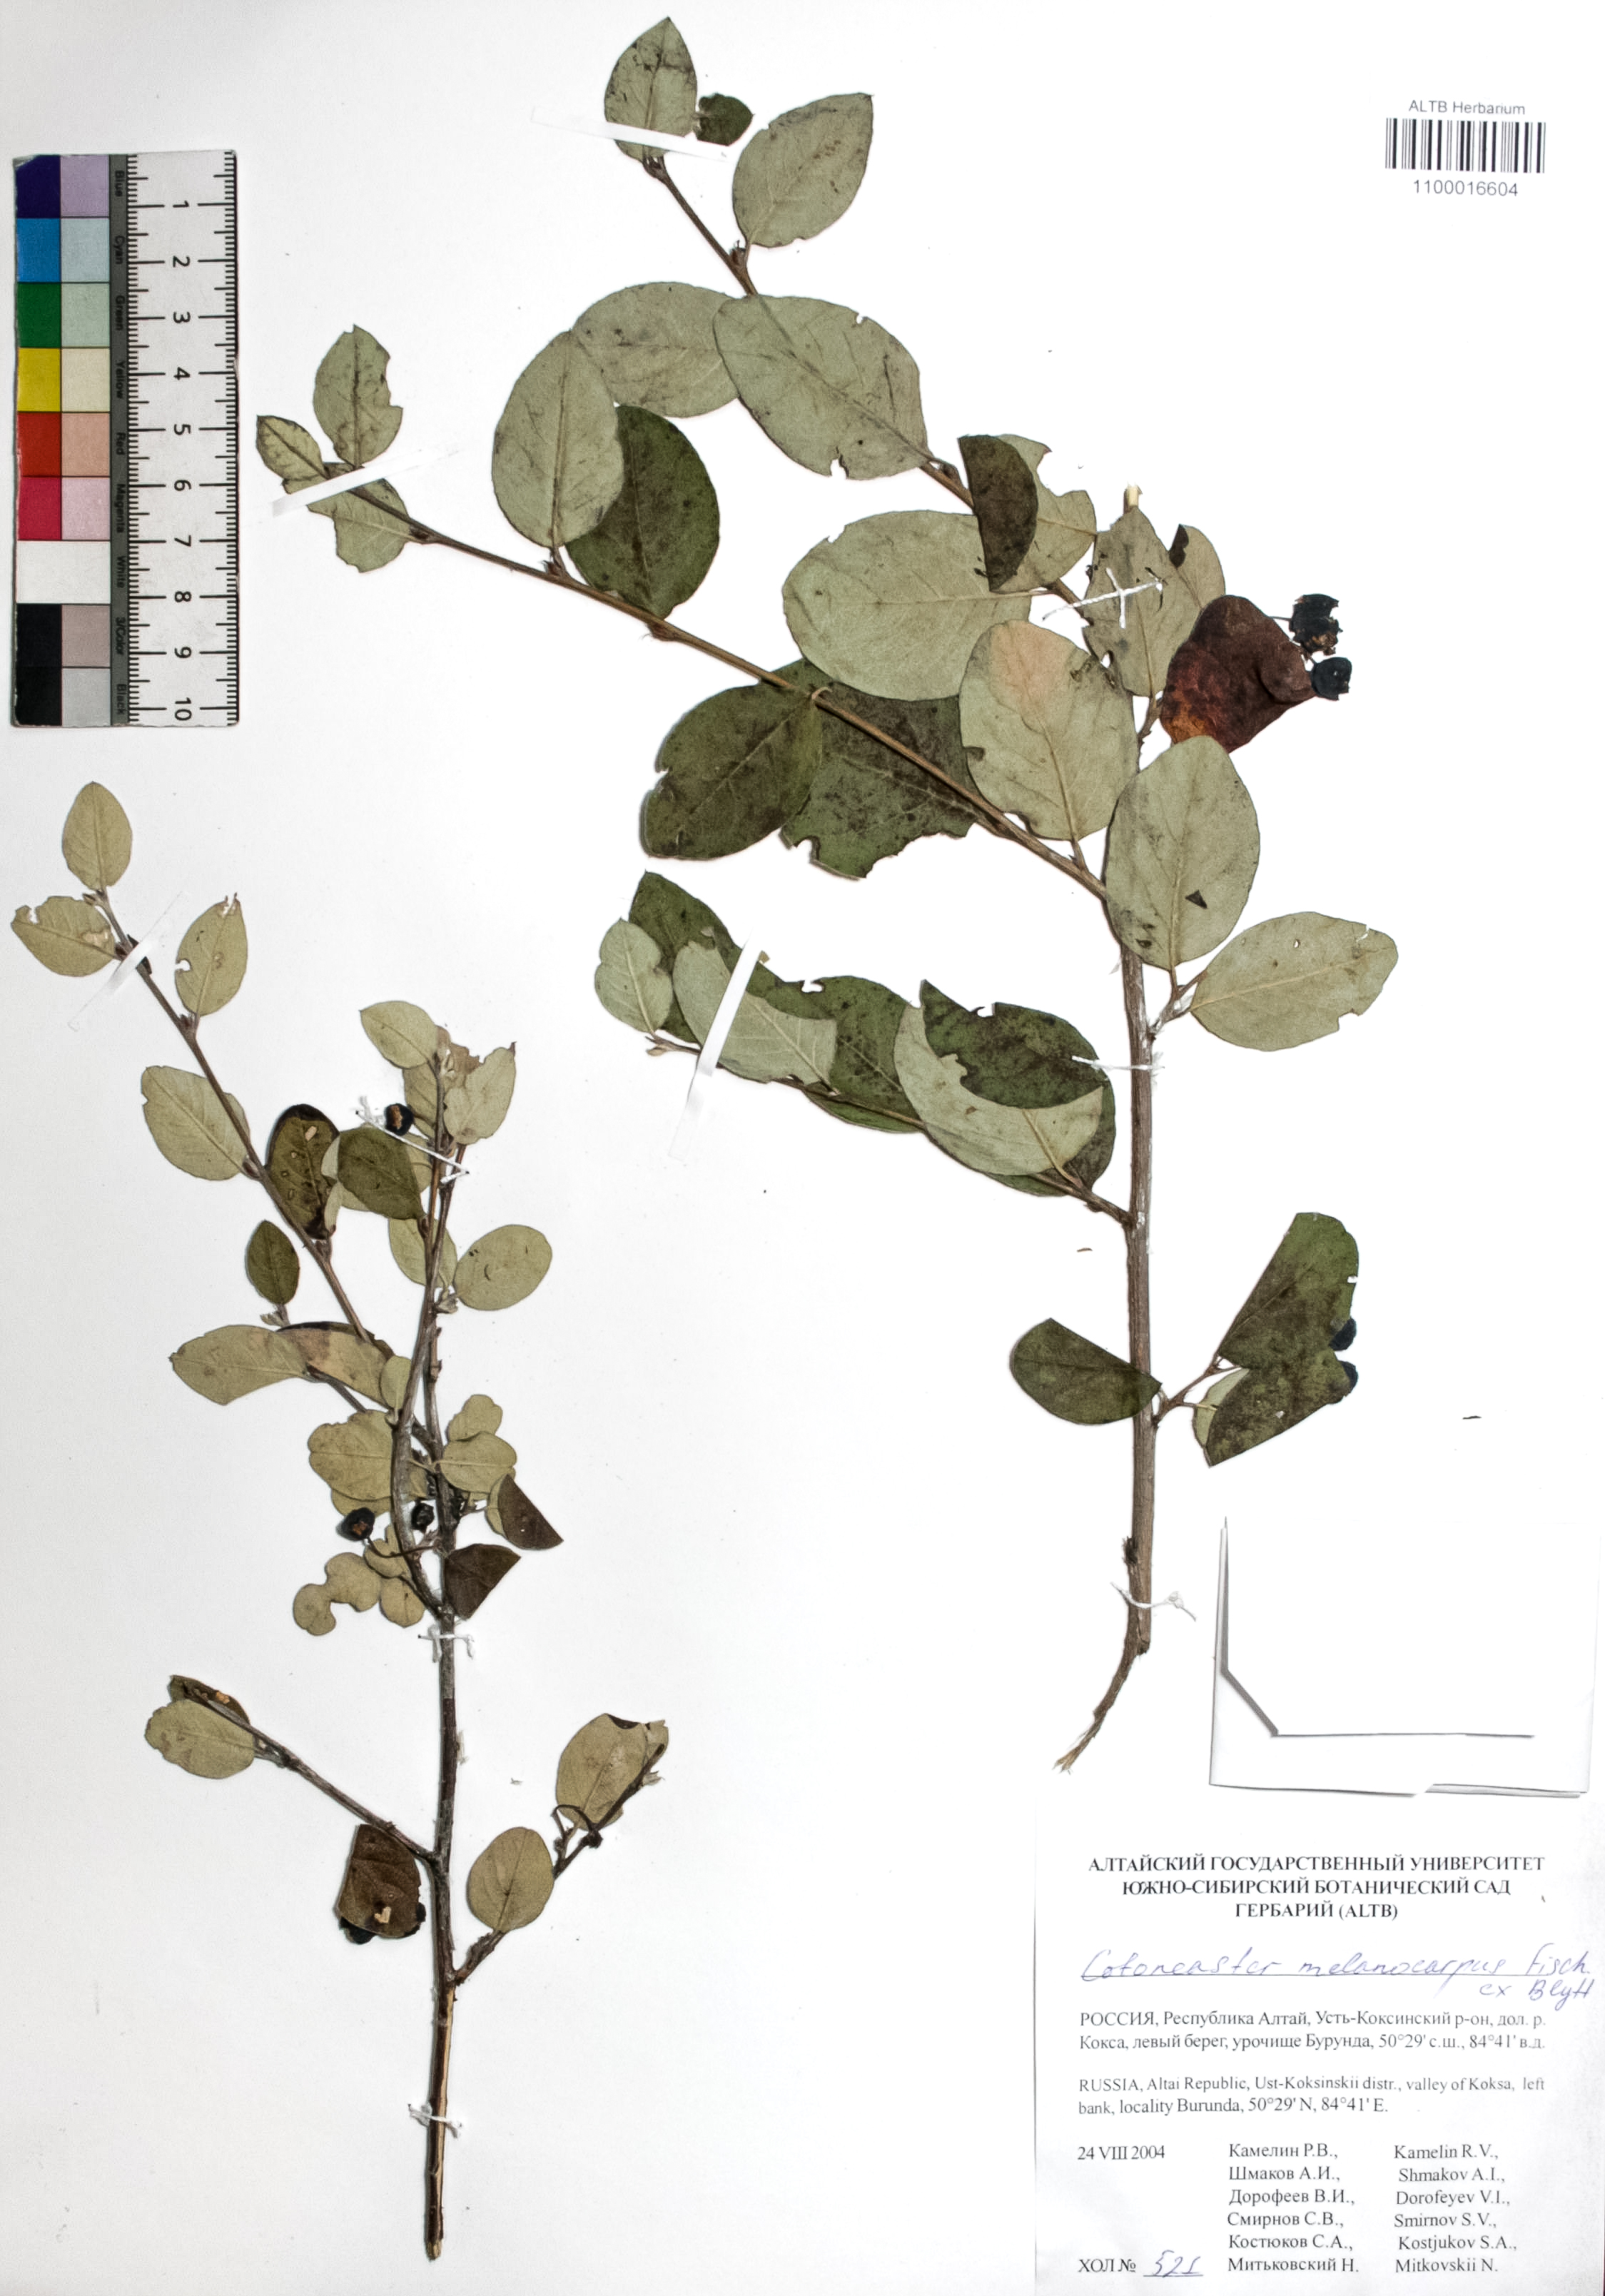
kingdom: Plantae
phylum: Tracheophyta
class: Magnoliopsida
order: Rosales
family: Rosaceae
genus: Cotoneaster
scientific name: Cotoneaster niger
